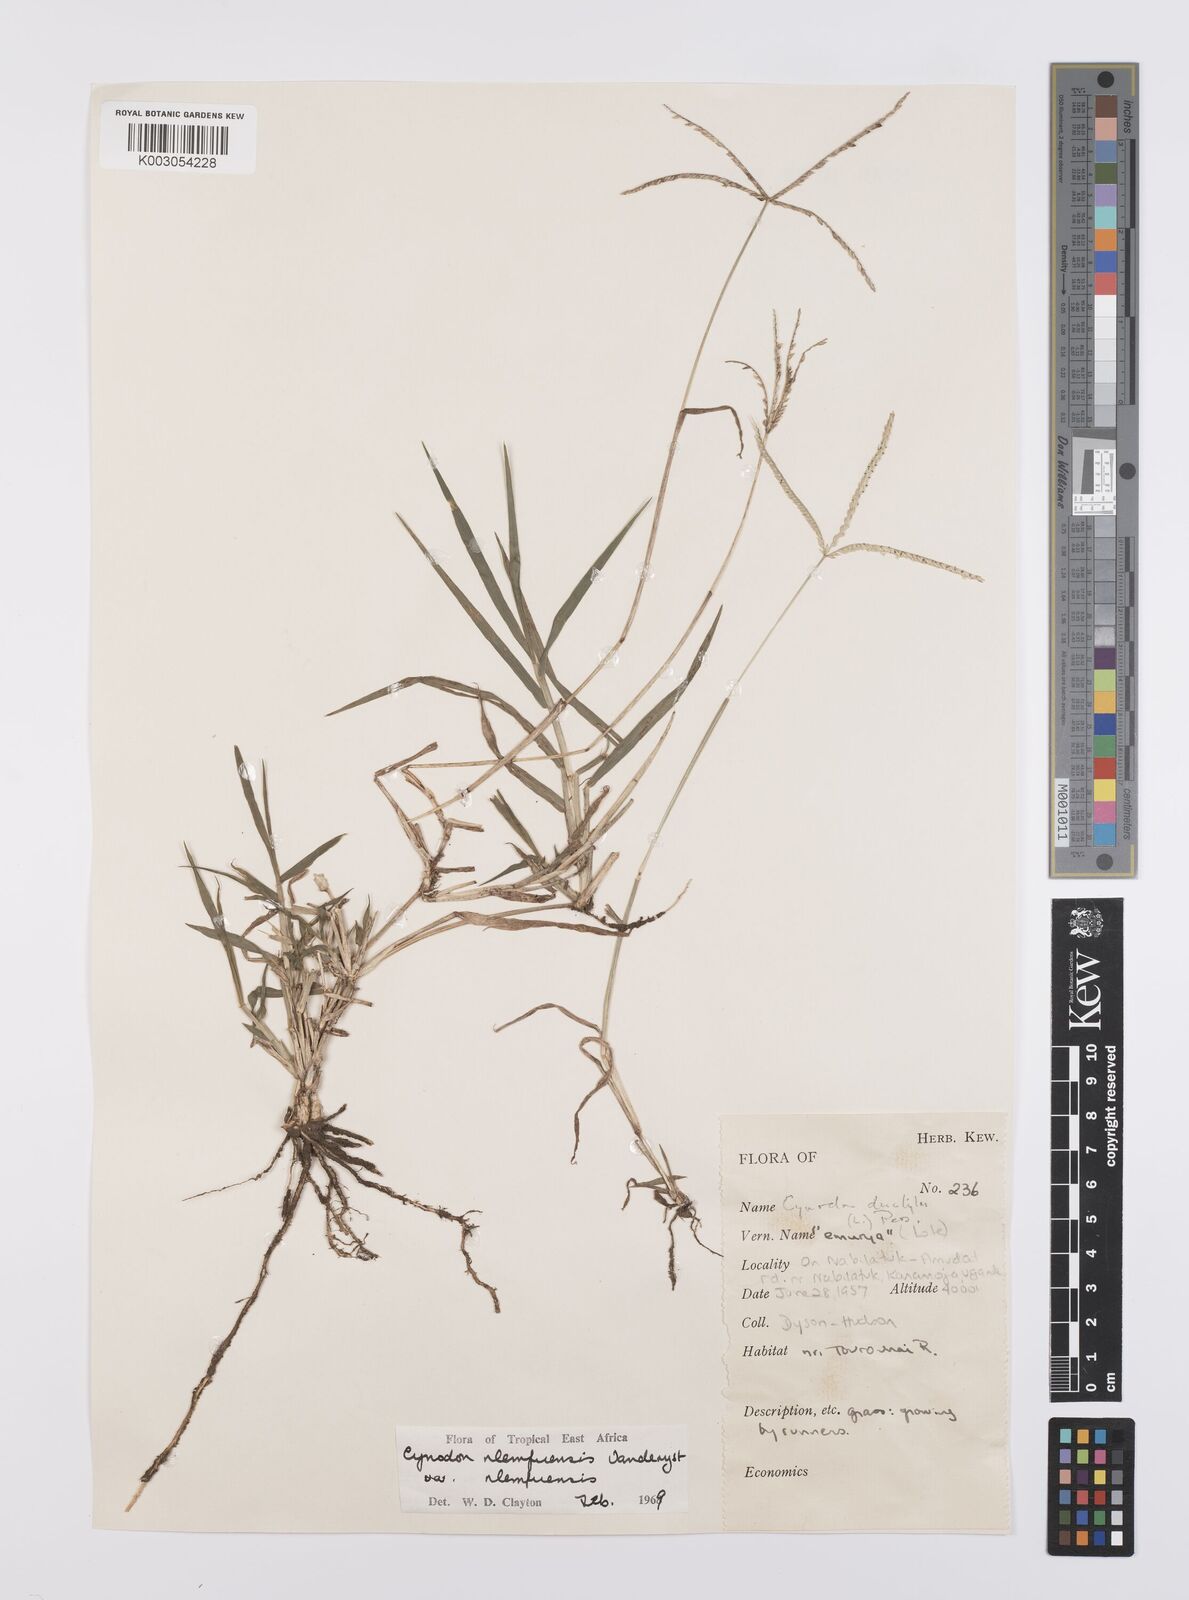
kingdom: Plantae
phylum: Tracheophyta
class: Liliopsida
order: Poales
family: Poaceae
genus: Cynodon
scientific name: Cynodon nlemfuensis
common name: African bermudagrass
